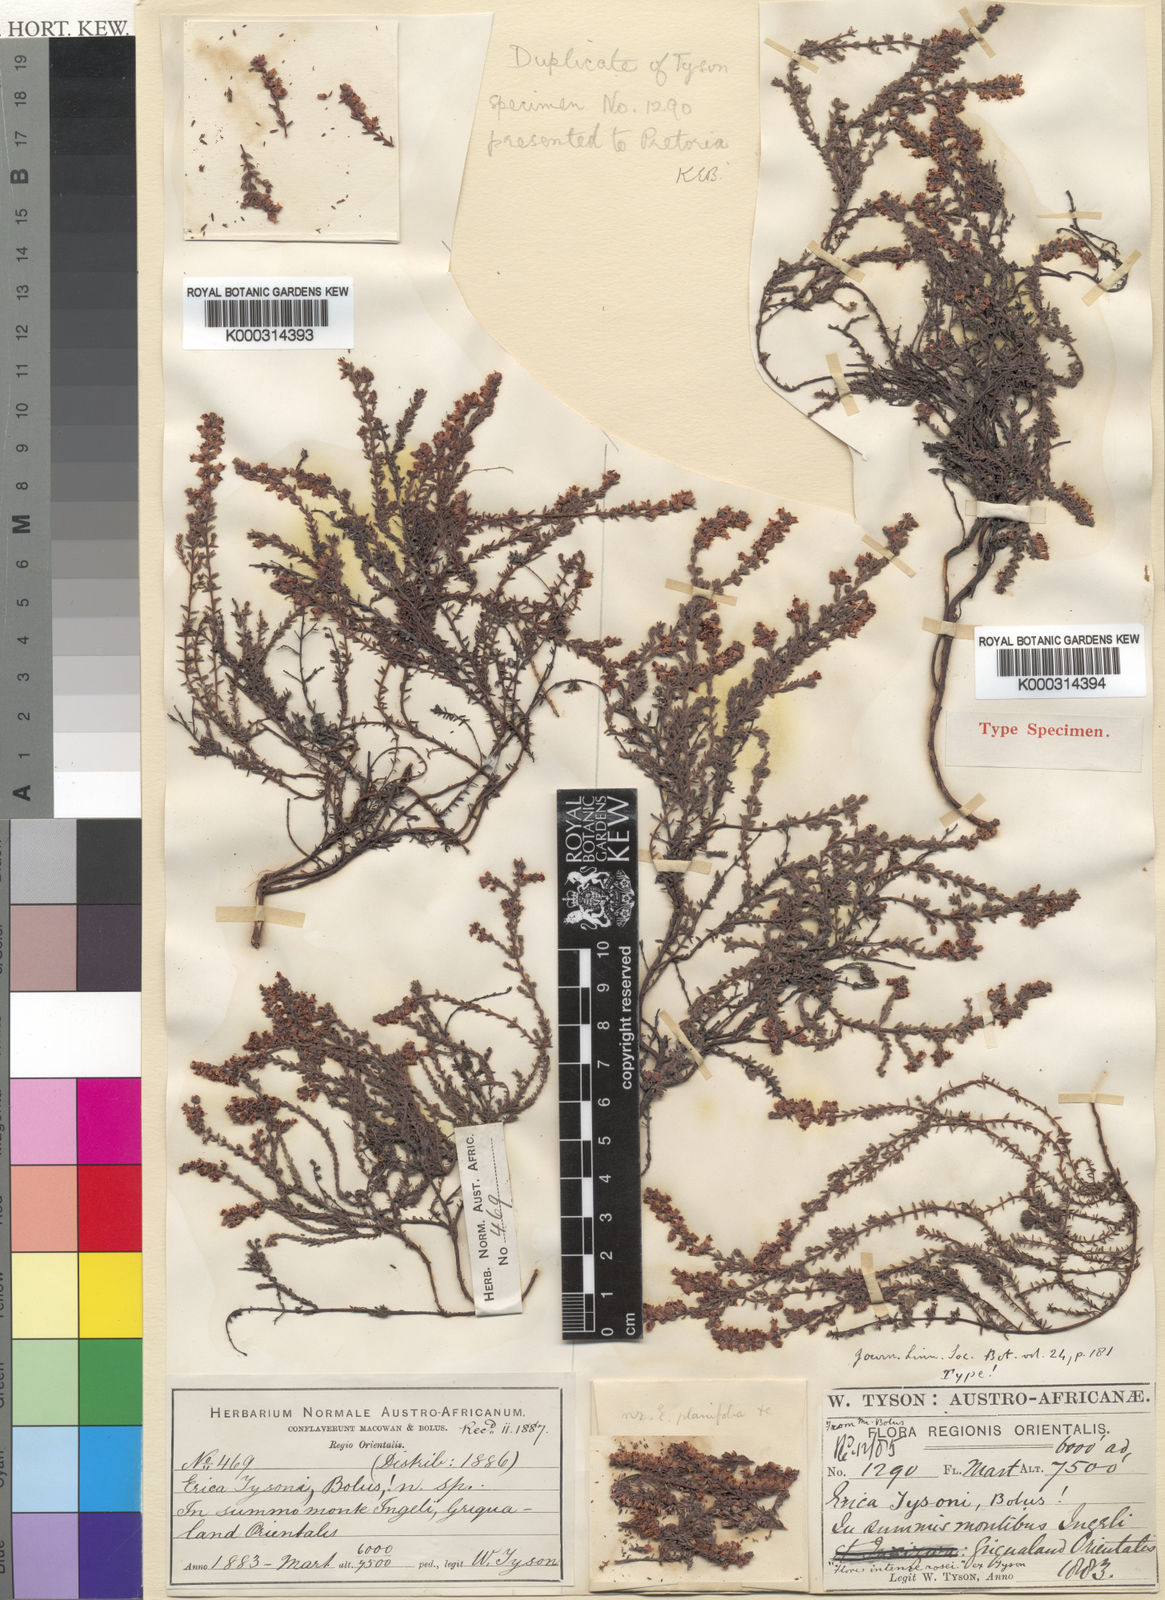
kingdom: Plantae
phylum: Tracheophyta
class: Magnoliopsida
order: Ericales
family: Ericaceae
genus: Erica
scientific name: Erica tysonii
